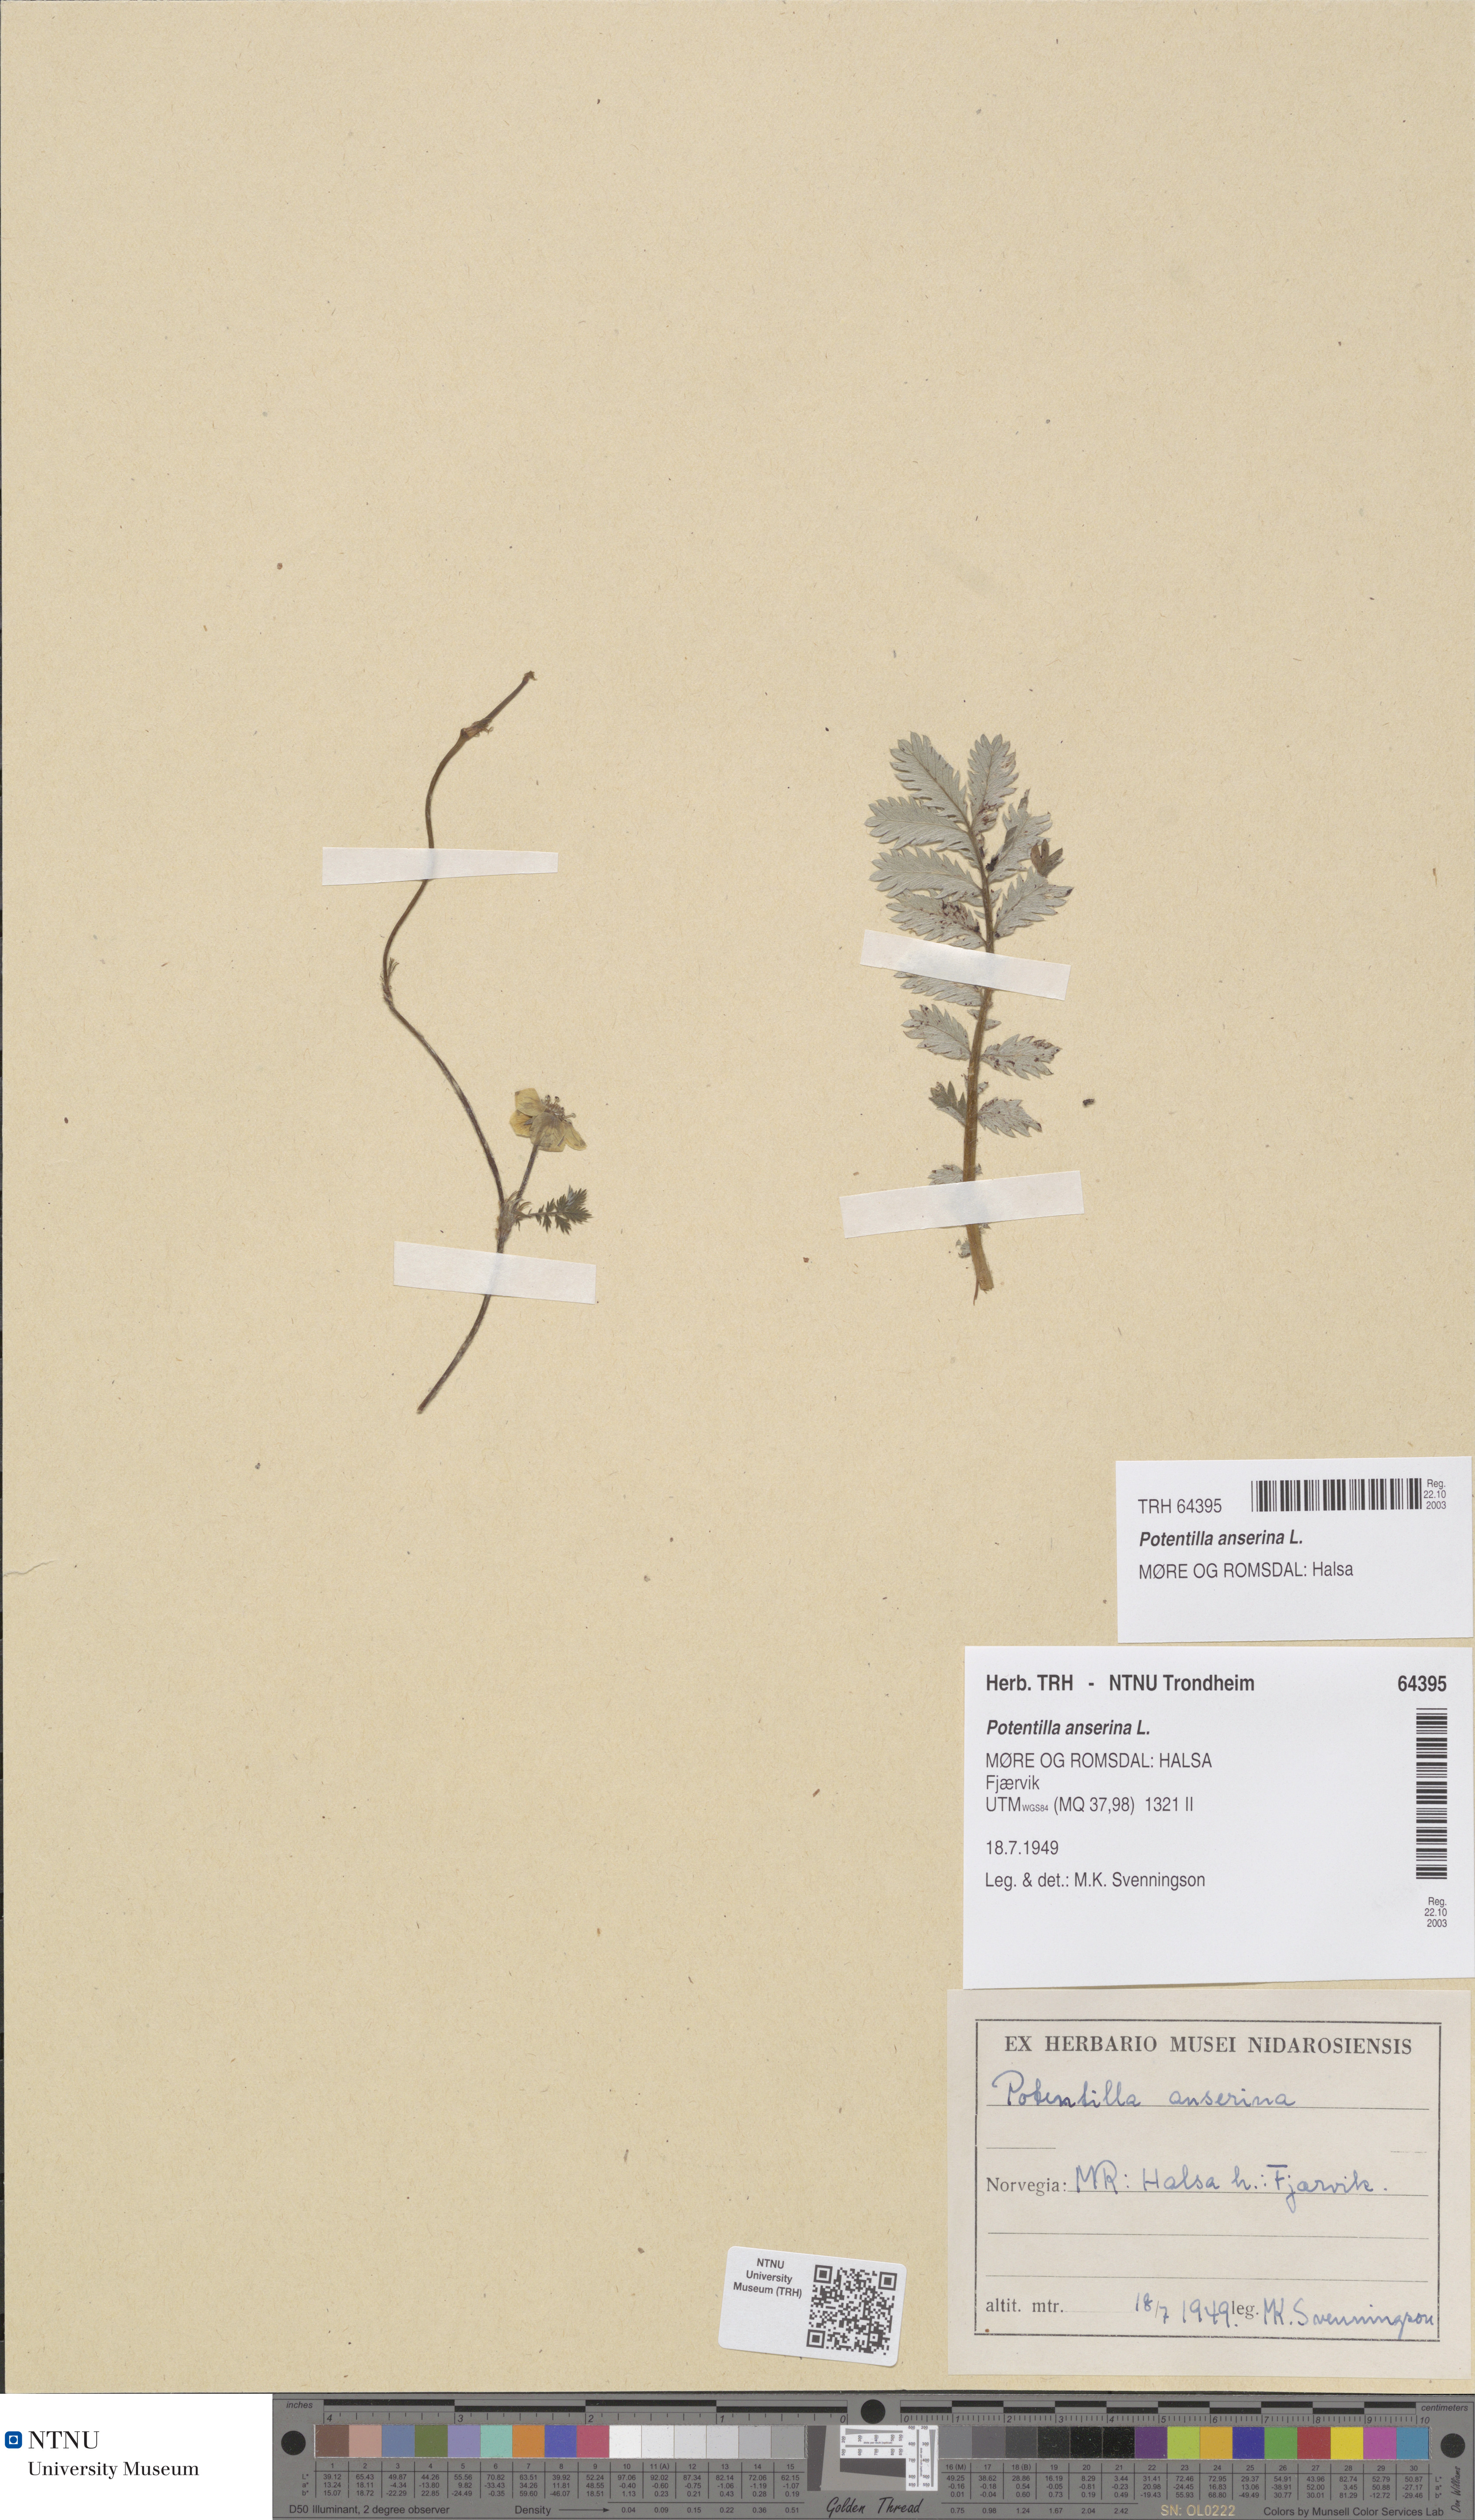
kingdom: Plantae
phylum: Tracheophyta
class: Magnoliopsida
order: Rosales
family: Rosaceae
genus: Argentina
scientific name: Argentina anserina
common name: Common silverweed
